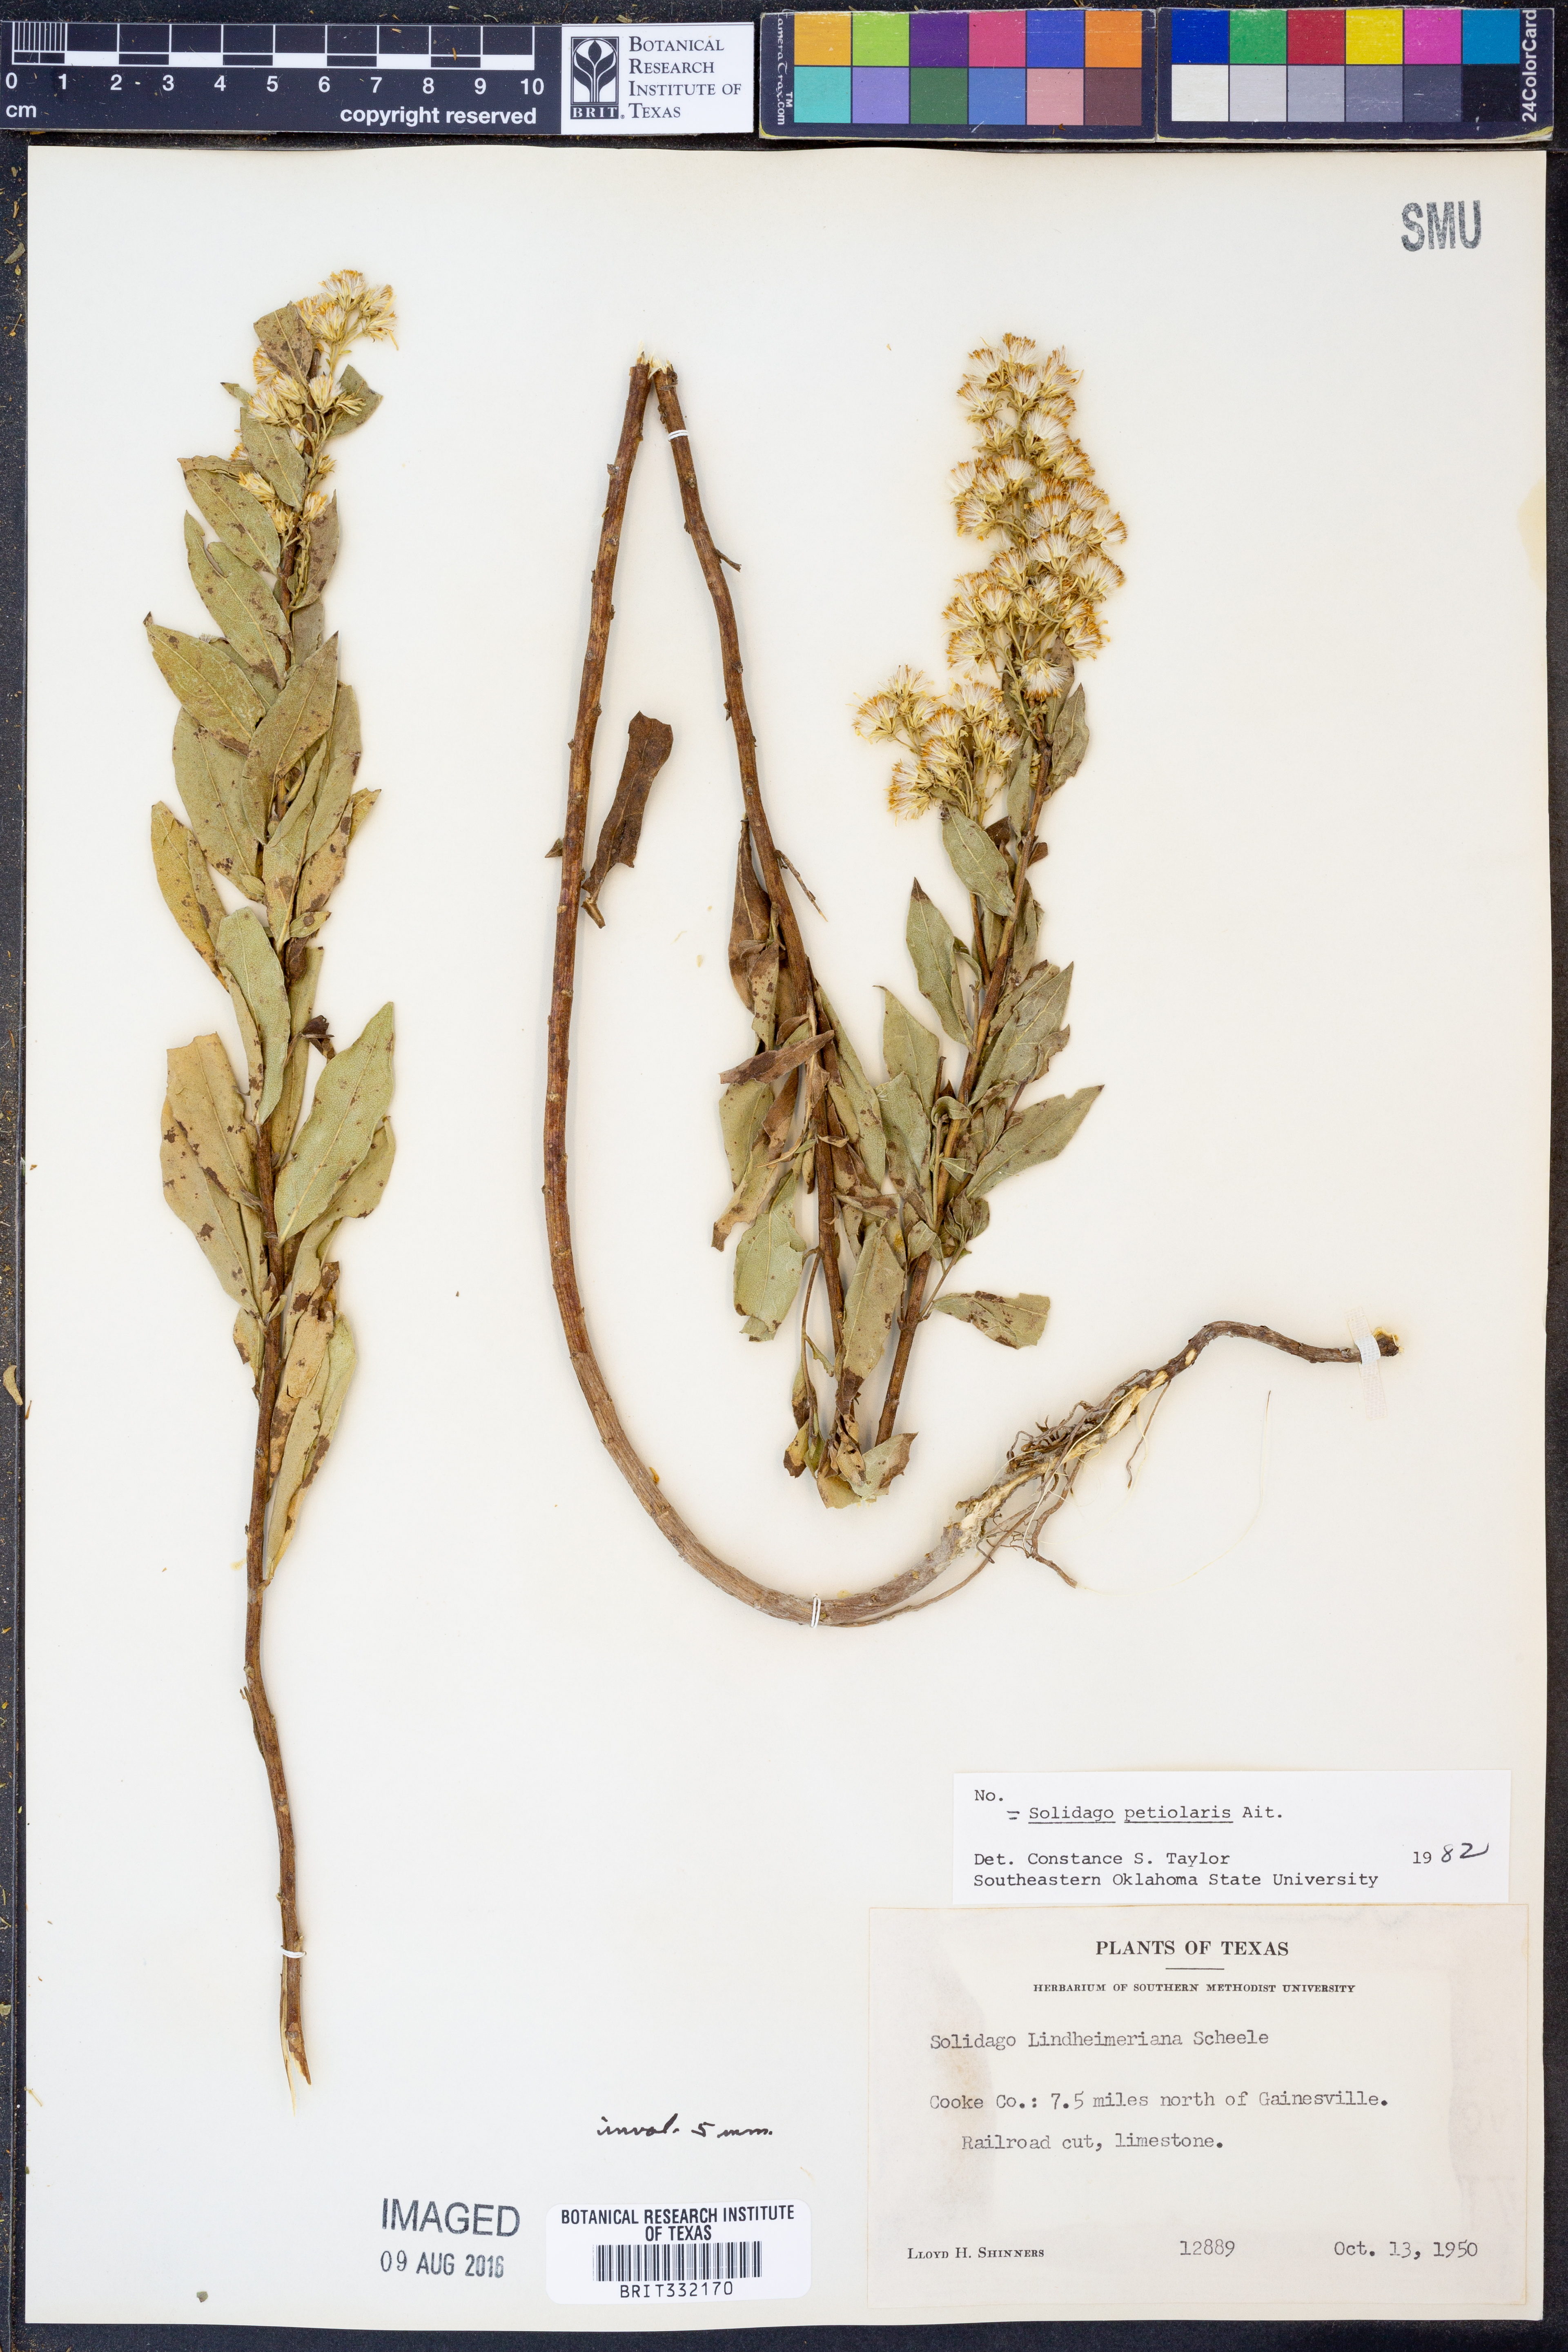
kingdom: Plantae
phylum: Tracheophyta
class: Magnoliopsida
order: Asterales
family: Asteraceae
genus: Solidago
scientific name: Solidago petiolaris
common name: Downy ragged goldenrod
